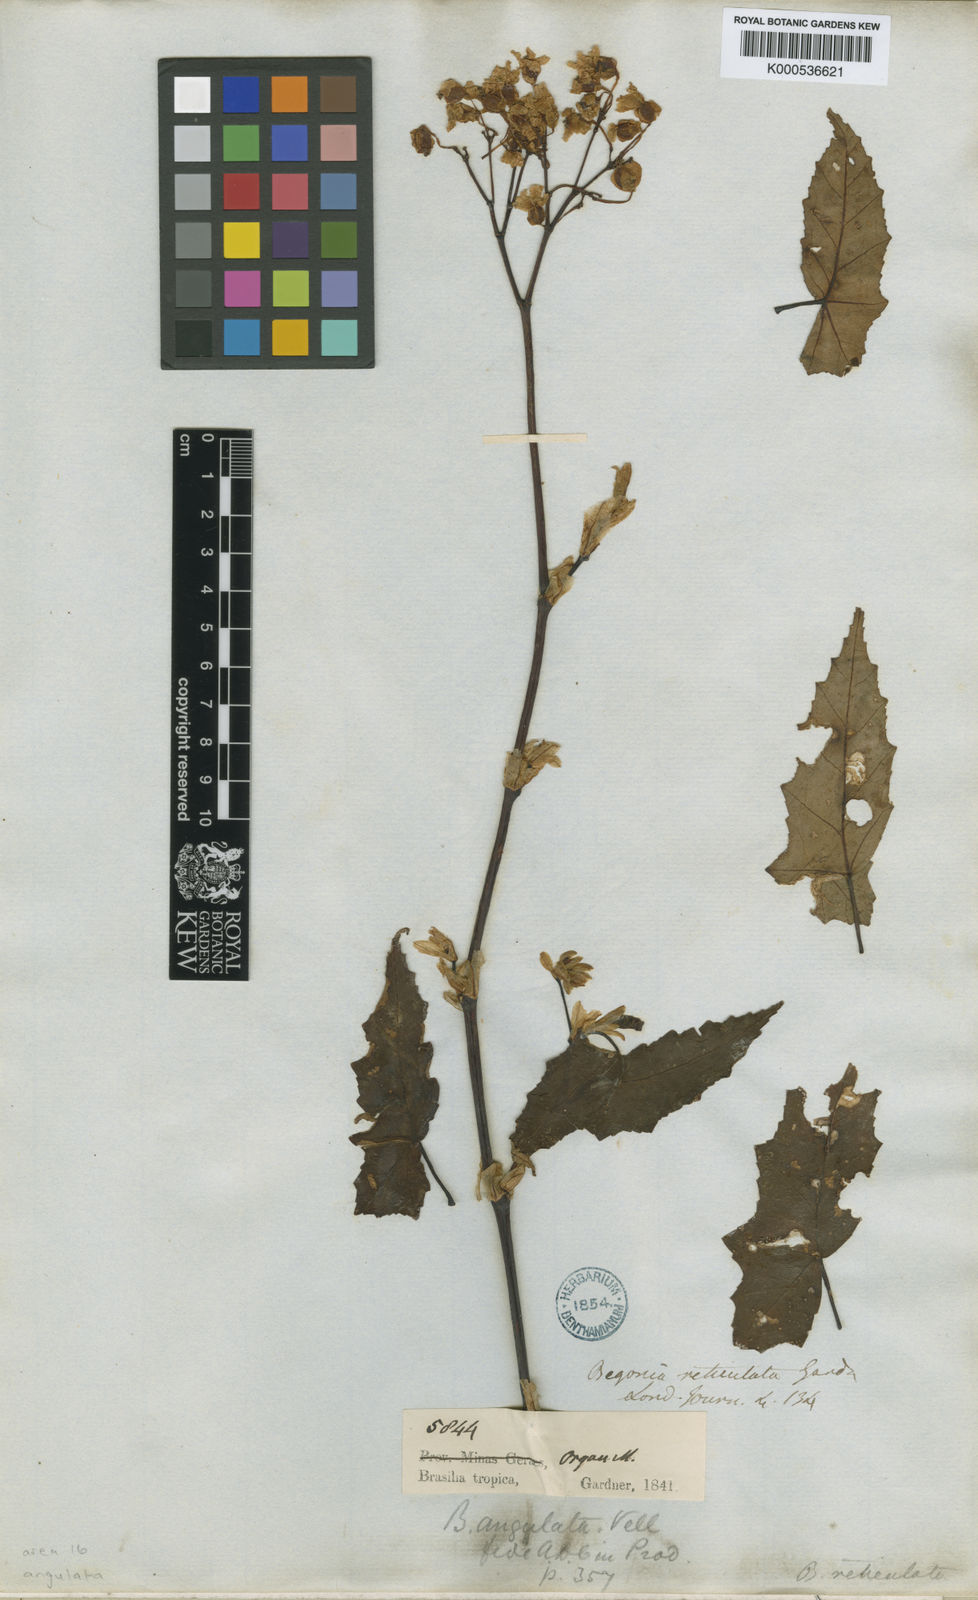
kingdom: Plantae
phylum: Tracheophyta
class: Magnoliopsida
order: Cucurbitales
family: Begoniaceae
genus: Begonia
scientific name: Begonia angulata
